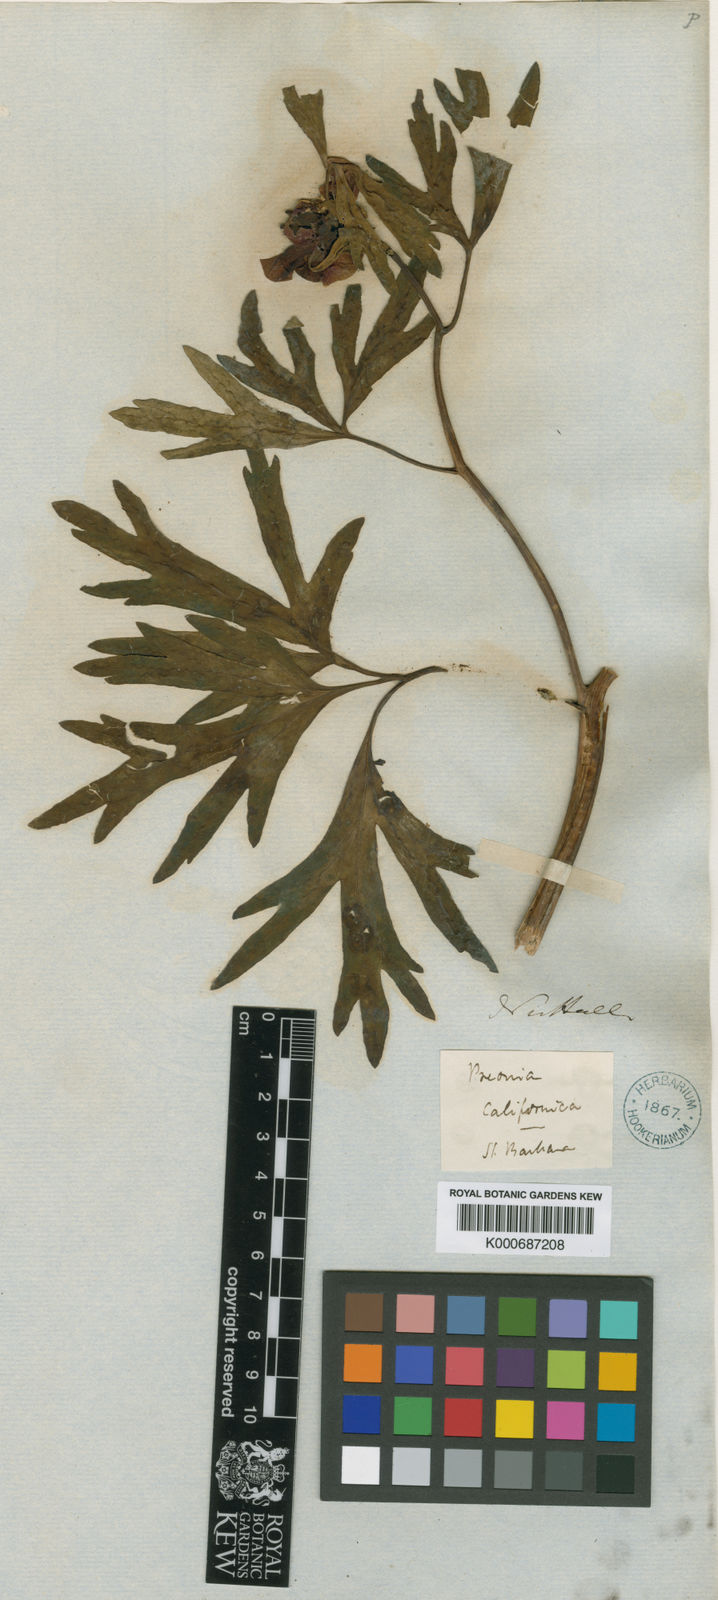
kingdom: Plantae
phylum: Tracheophyta
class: Magnoliopsida
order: Saxifragales
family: Paeoniaceae
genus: Paeonia
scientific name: Paeonia brownii
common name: Brown's peony
